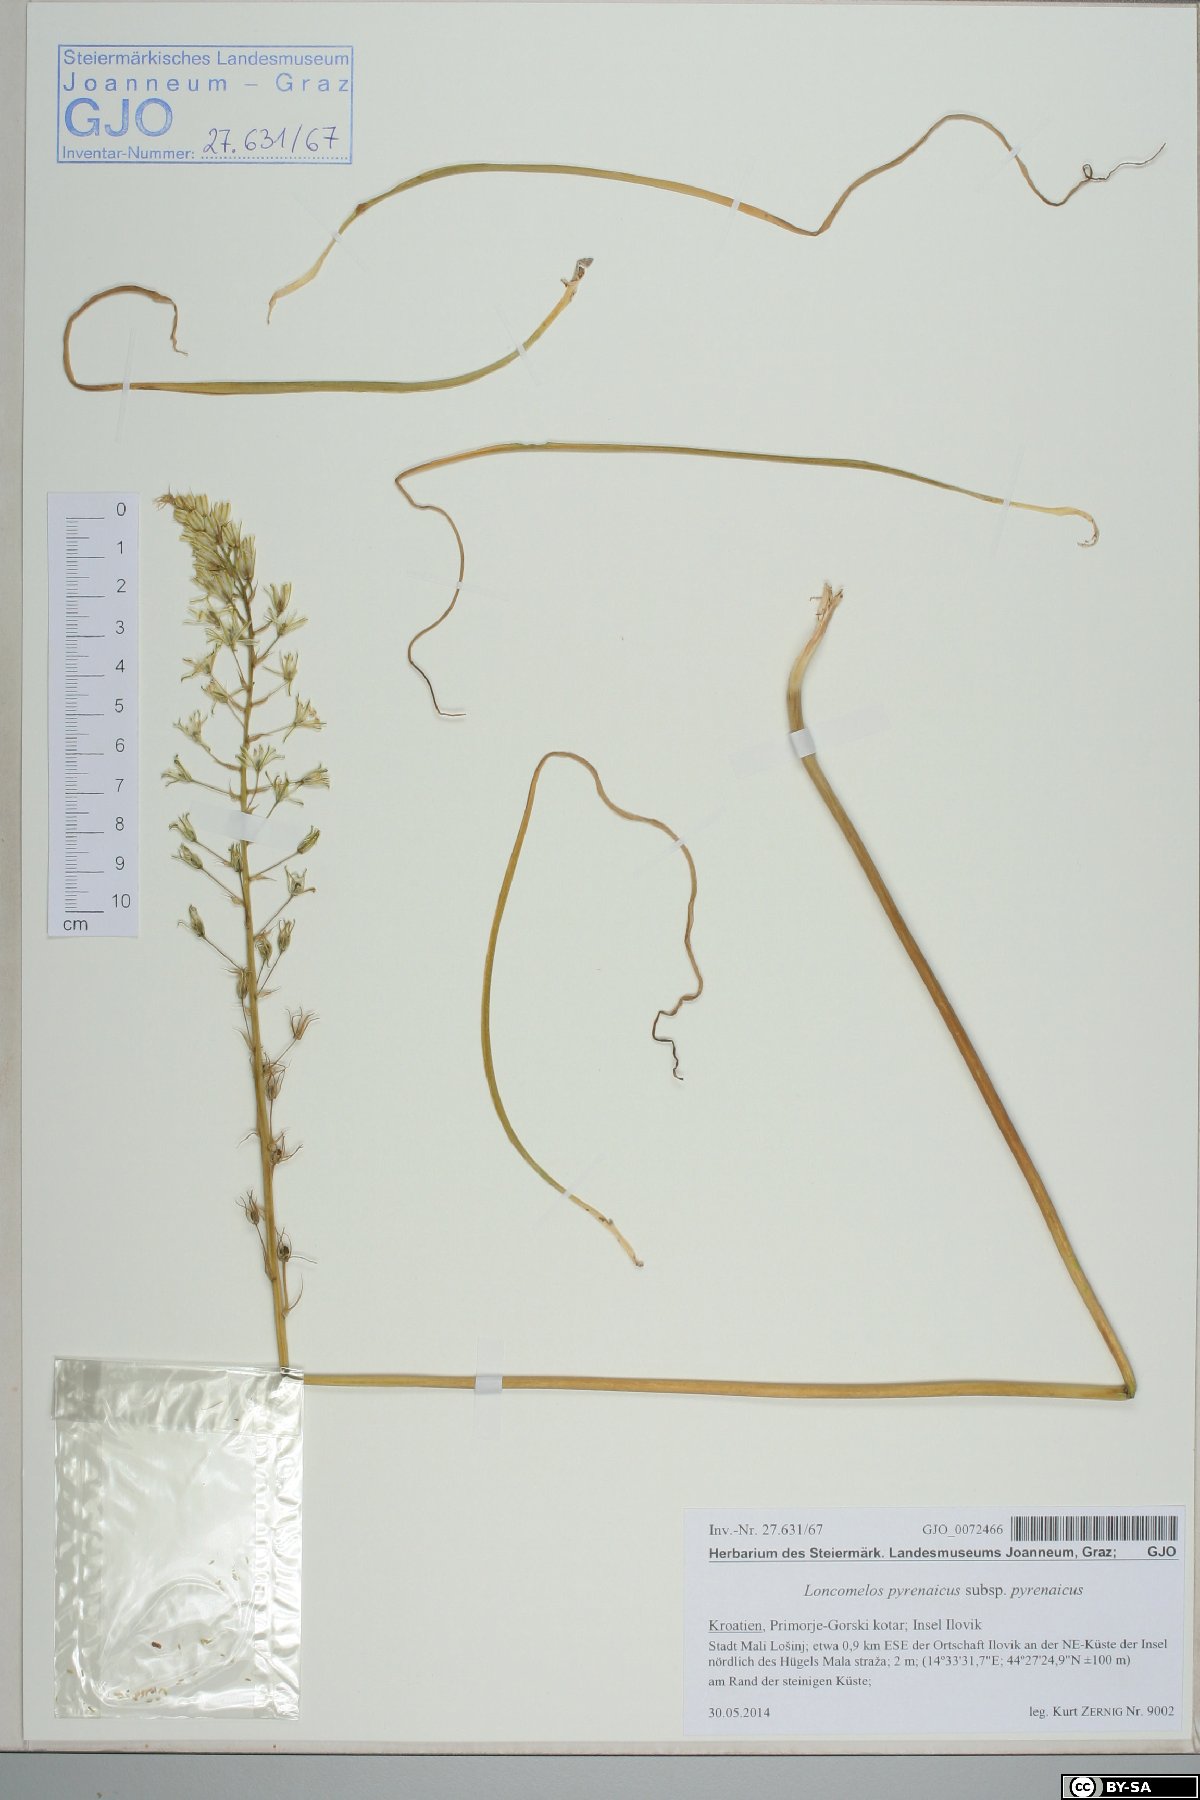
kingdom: Plantae
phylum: Tracheophyta
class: Liliopsida
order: Asparagales
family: Asparagaceae
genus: Ornithogalum
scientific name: Ornithogalum pyrenaicum
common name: Spiked star-of-bethlehem
